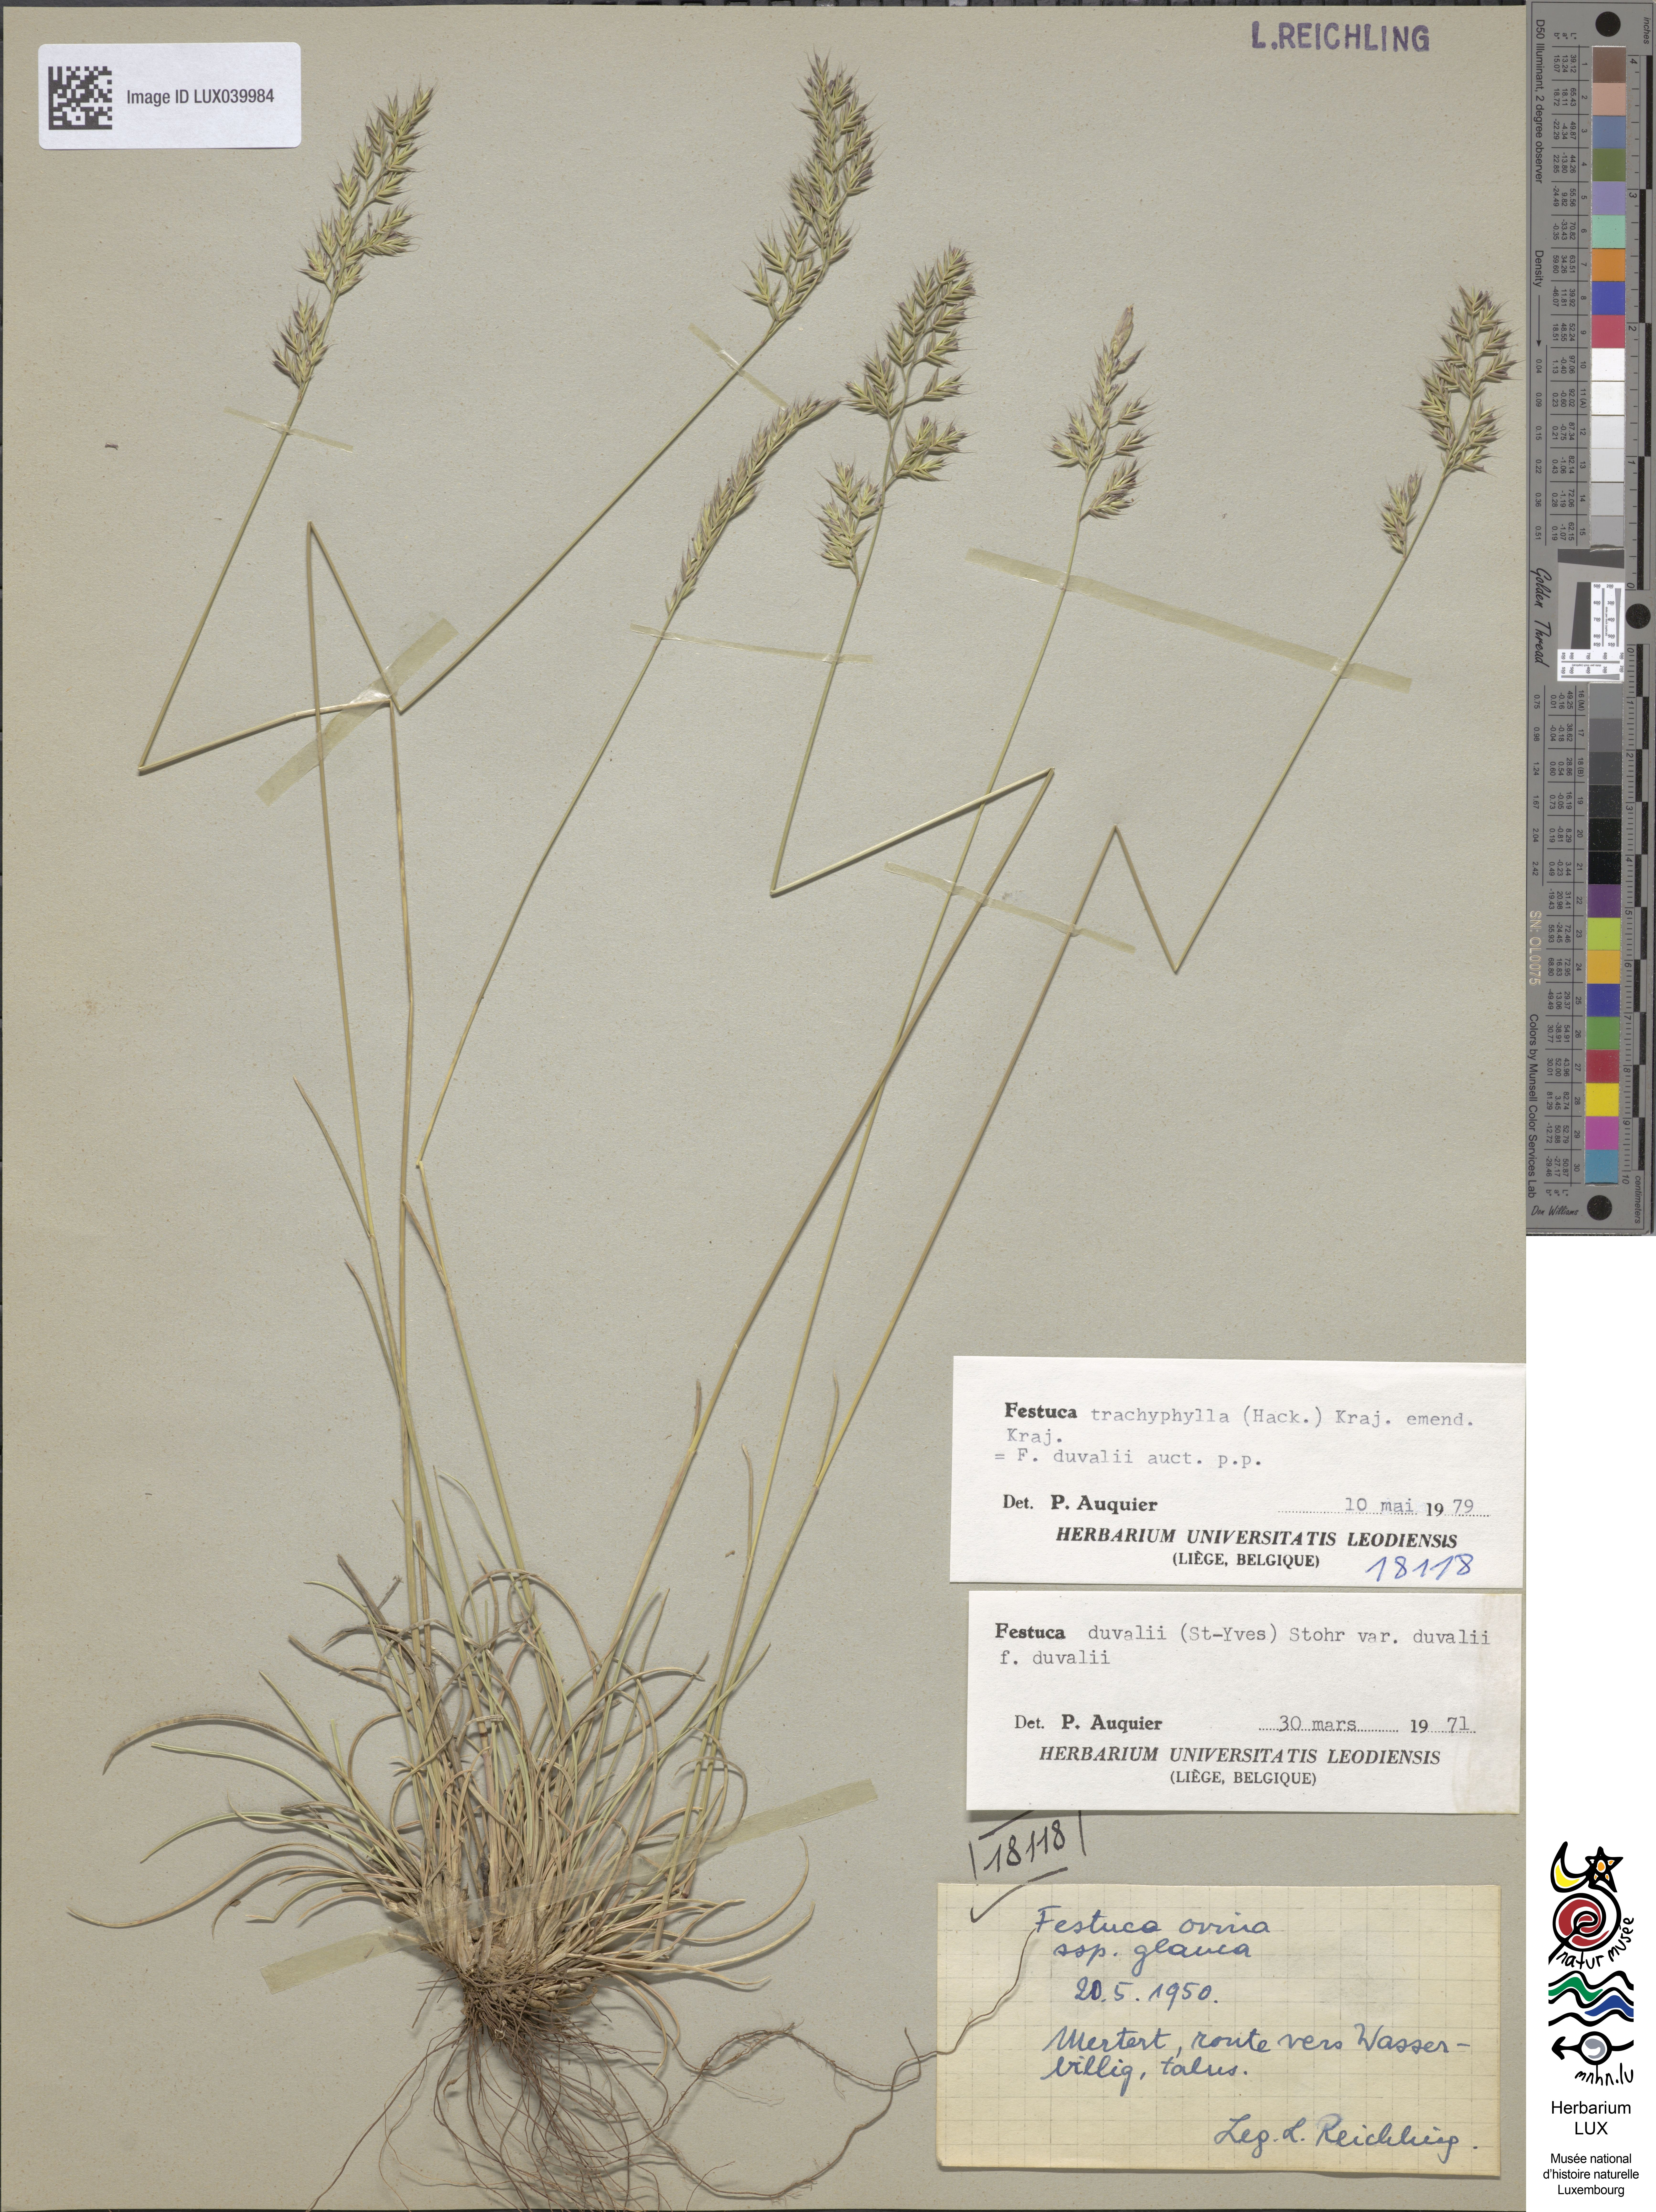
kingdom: Plantae
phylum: Tracheophyta
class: Liliopsida
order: Poales
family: Poaceae
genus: Festuca
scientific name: Festuca arvernensis
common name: Field fescue
